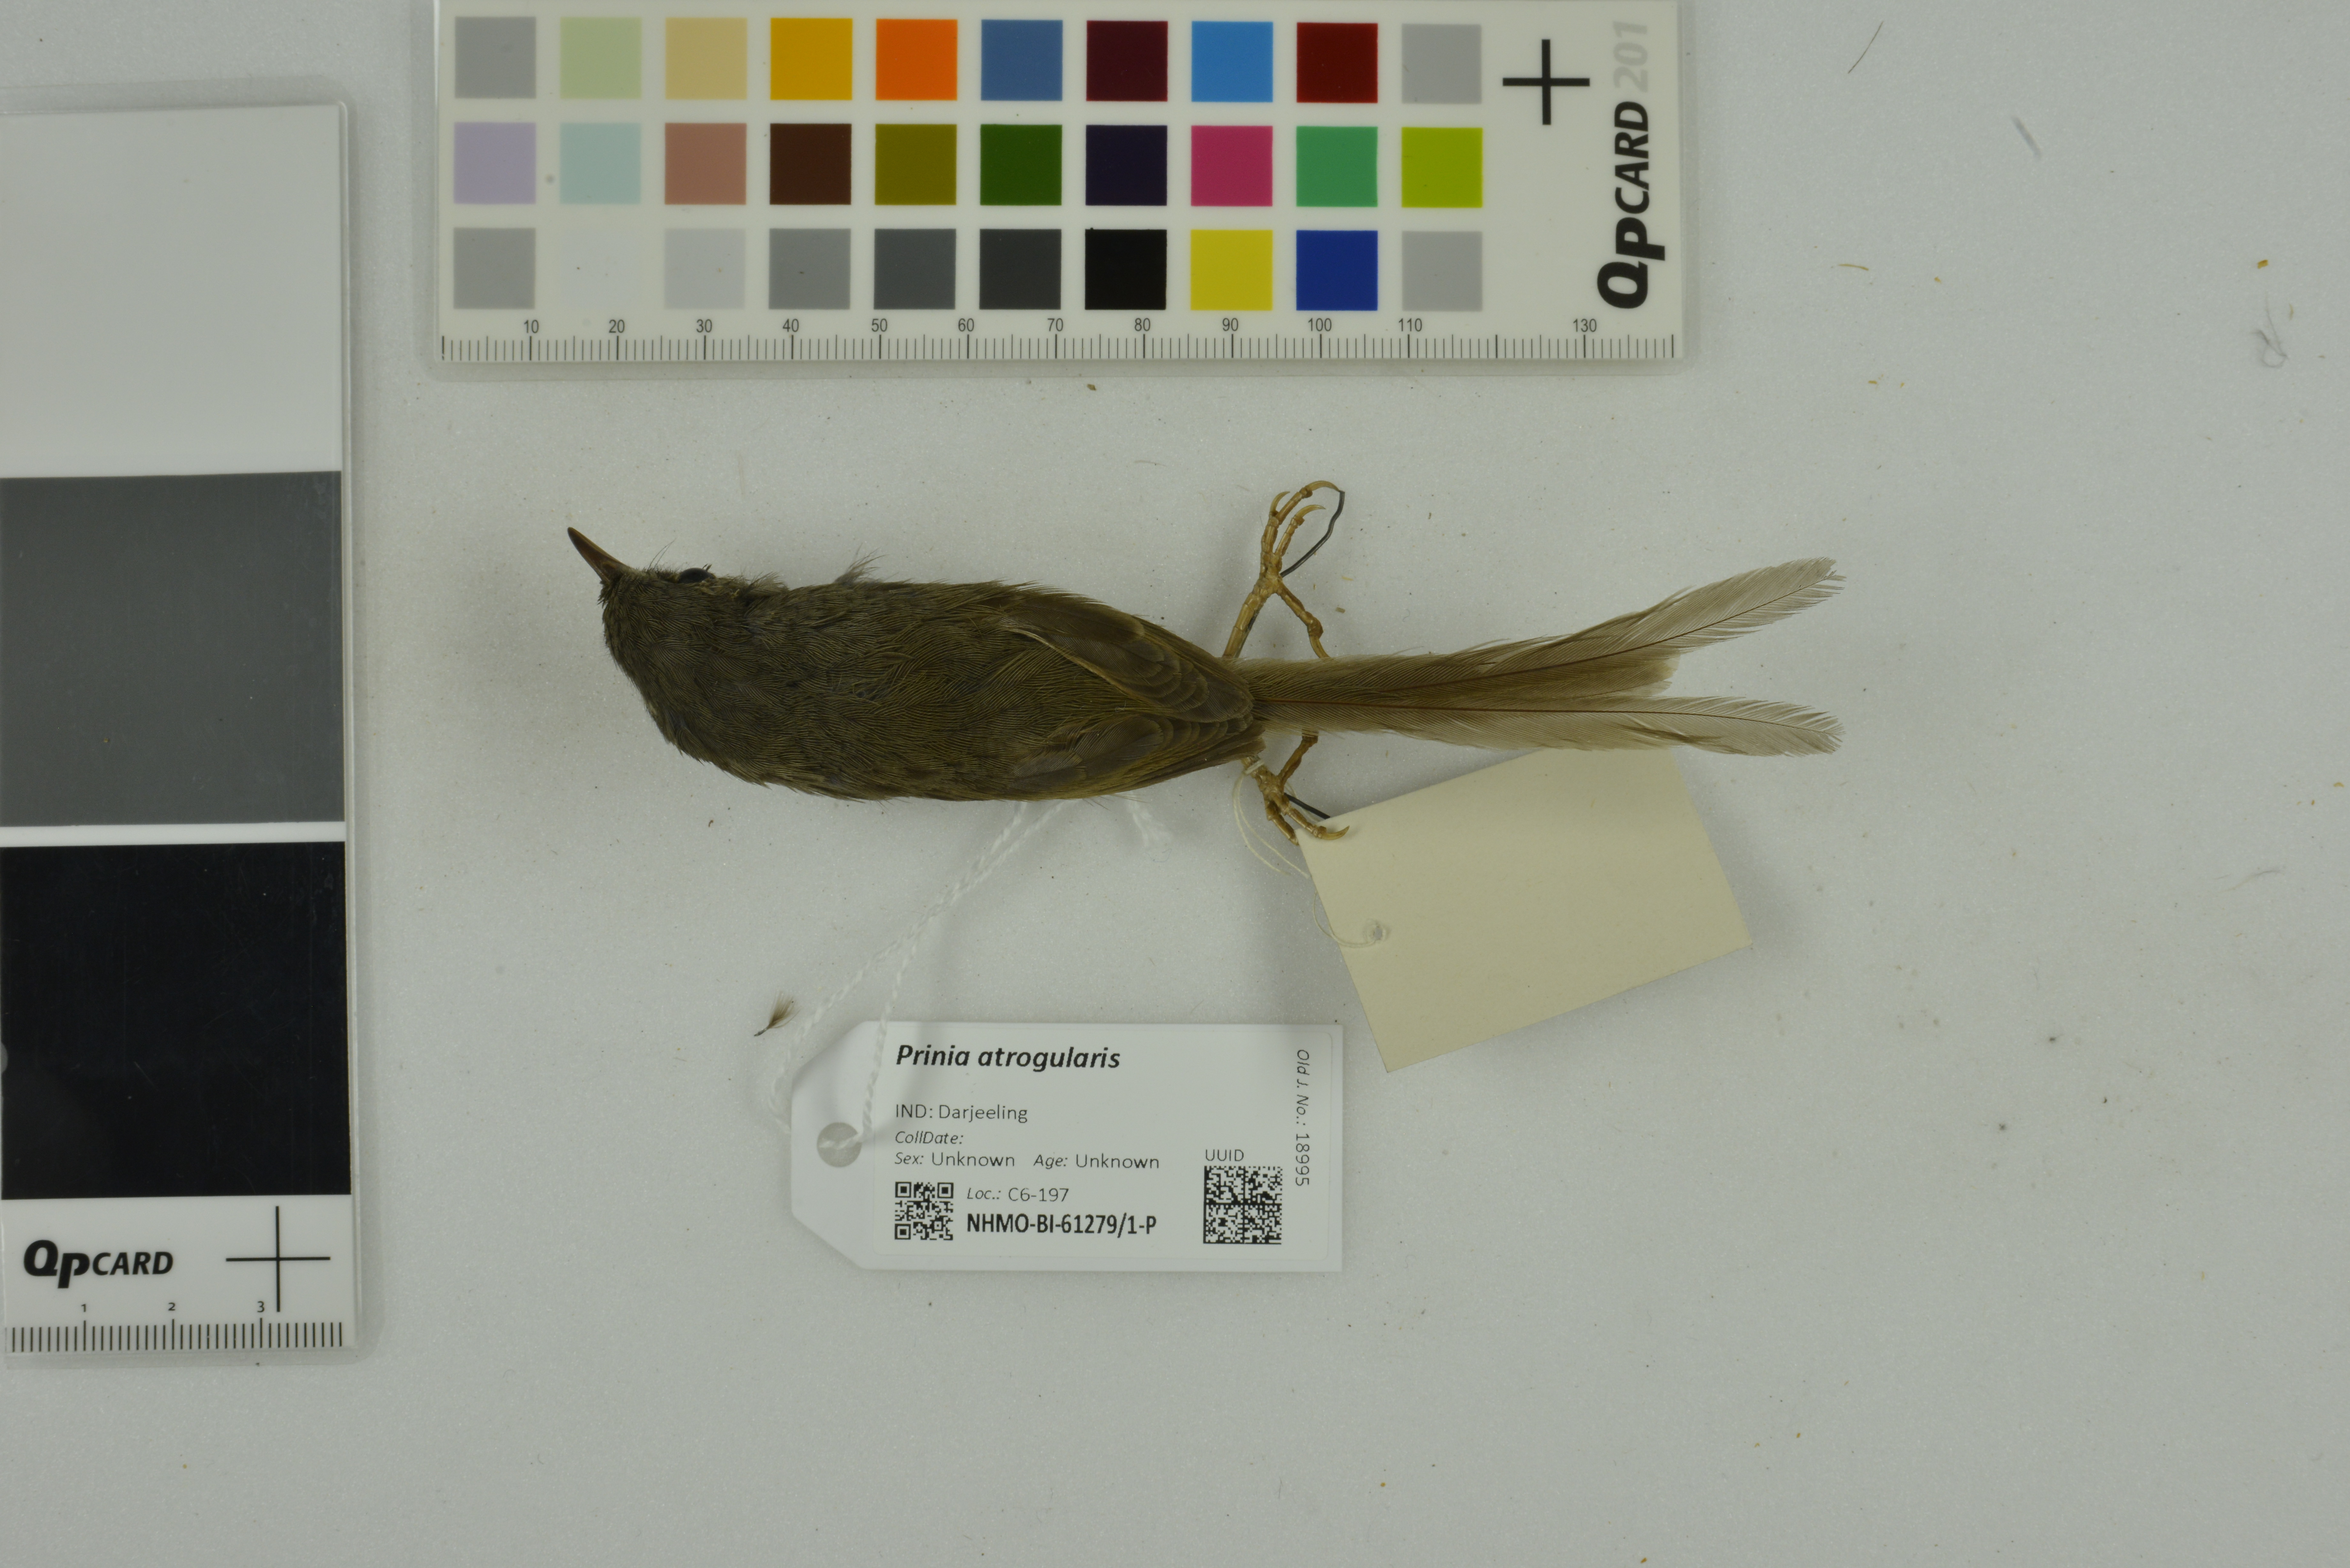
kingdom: Animalia
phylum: Chordata
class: Aves
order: Passeriformes
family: Cisticolidae
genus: Prinia
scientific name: Prinia atrogularis
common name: Black-throated prinia
